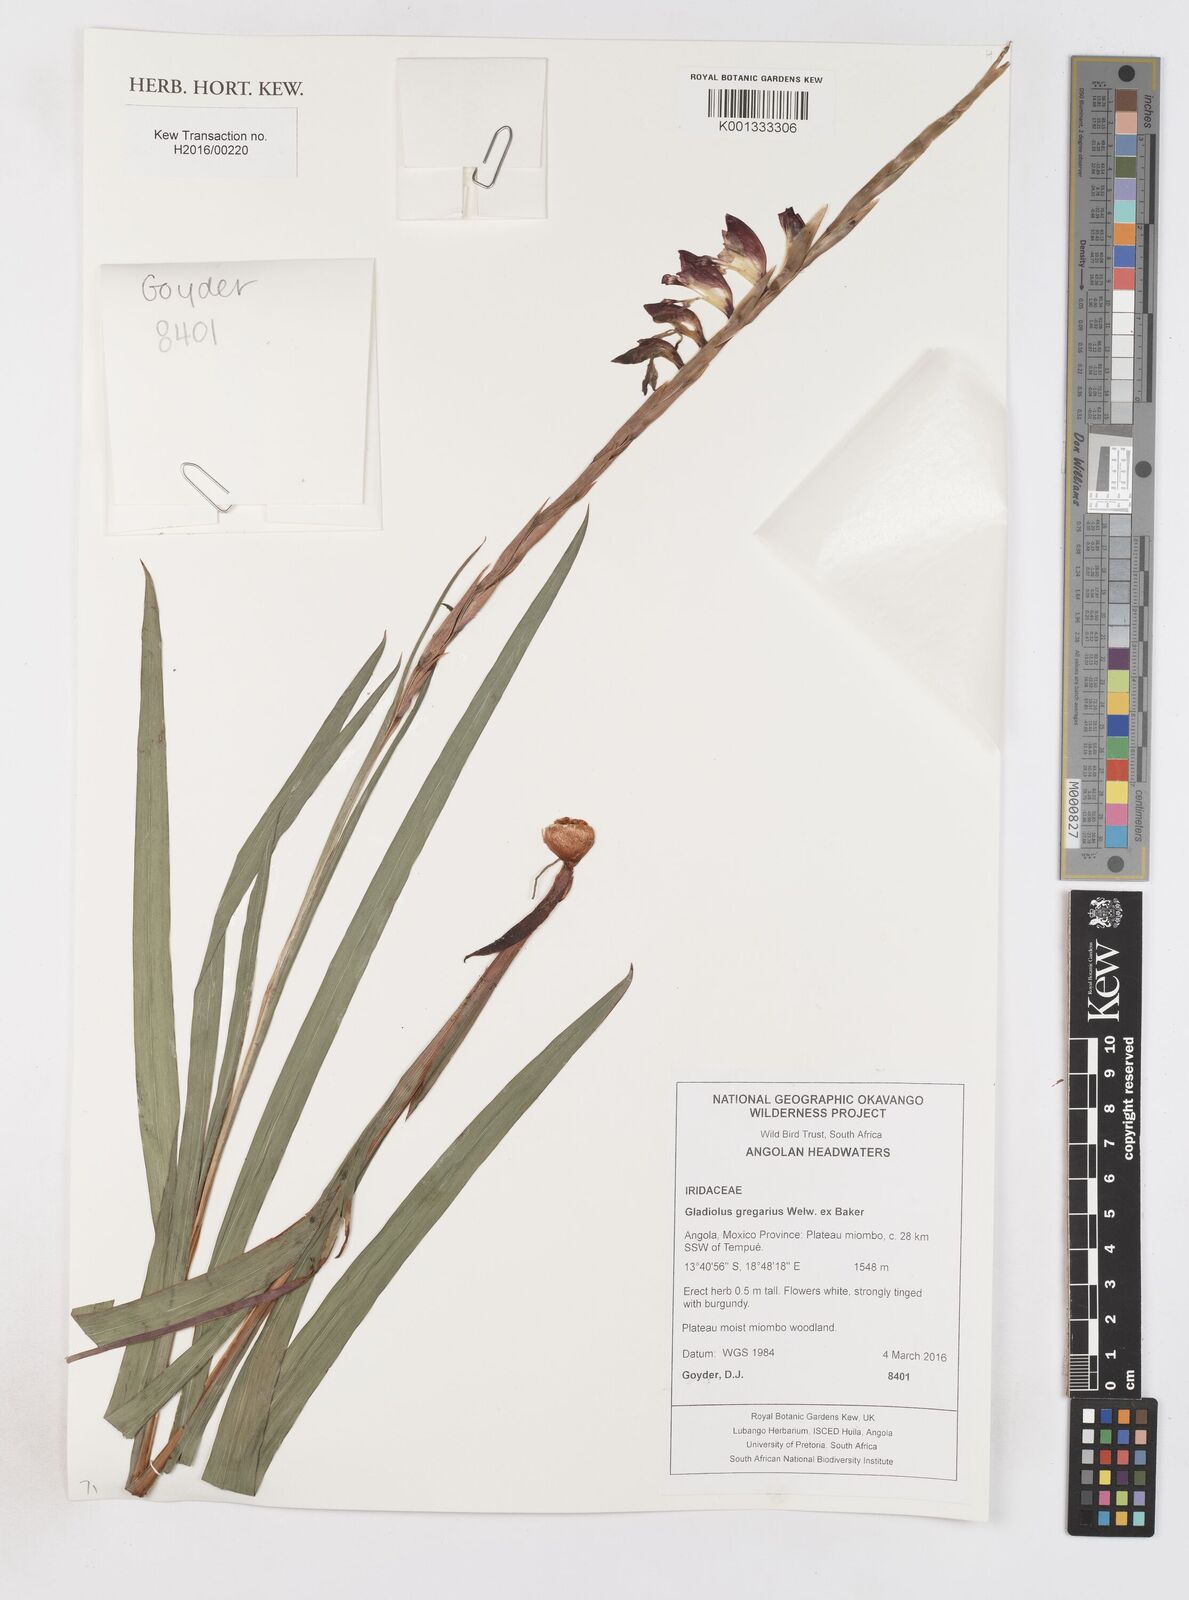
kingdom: Plantae
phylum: Tracheophyta
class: Liliopsida
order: Asparagales
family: Iridaceae
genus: Gladiolus
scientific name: Gladiolus gregarius
